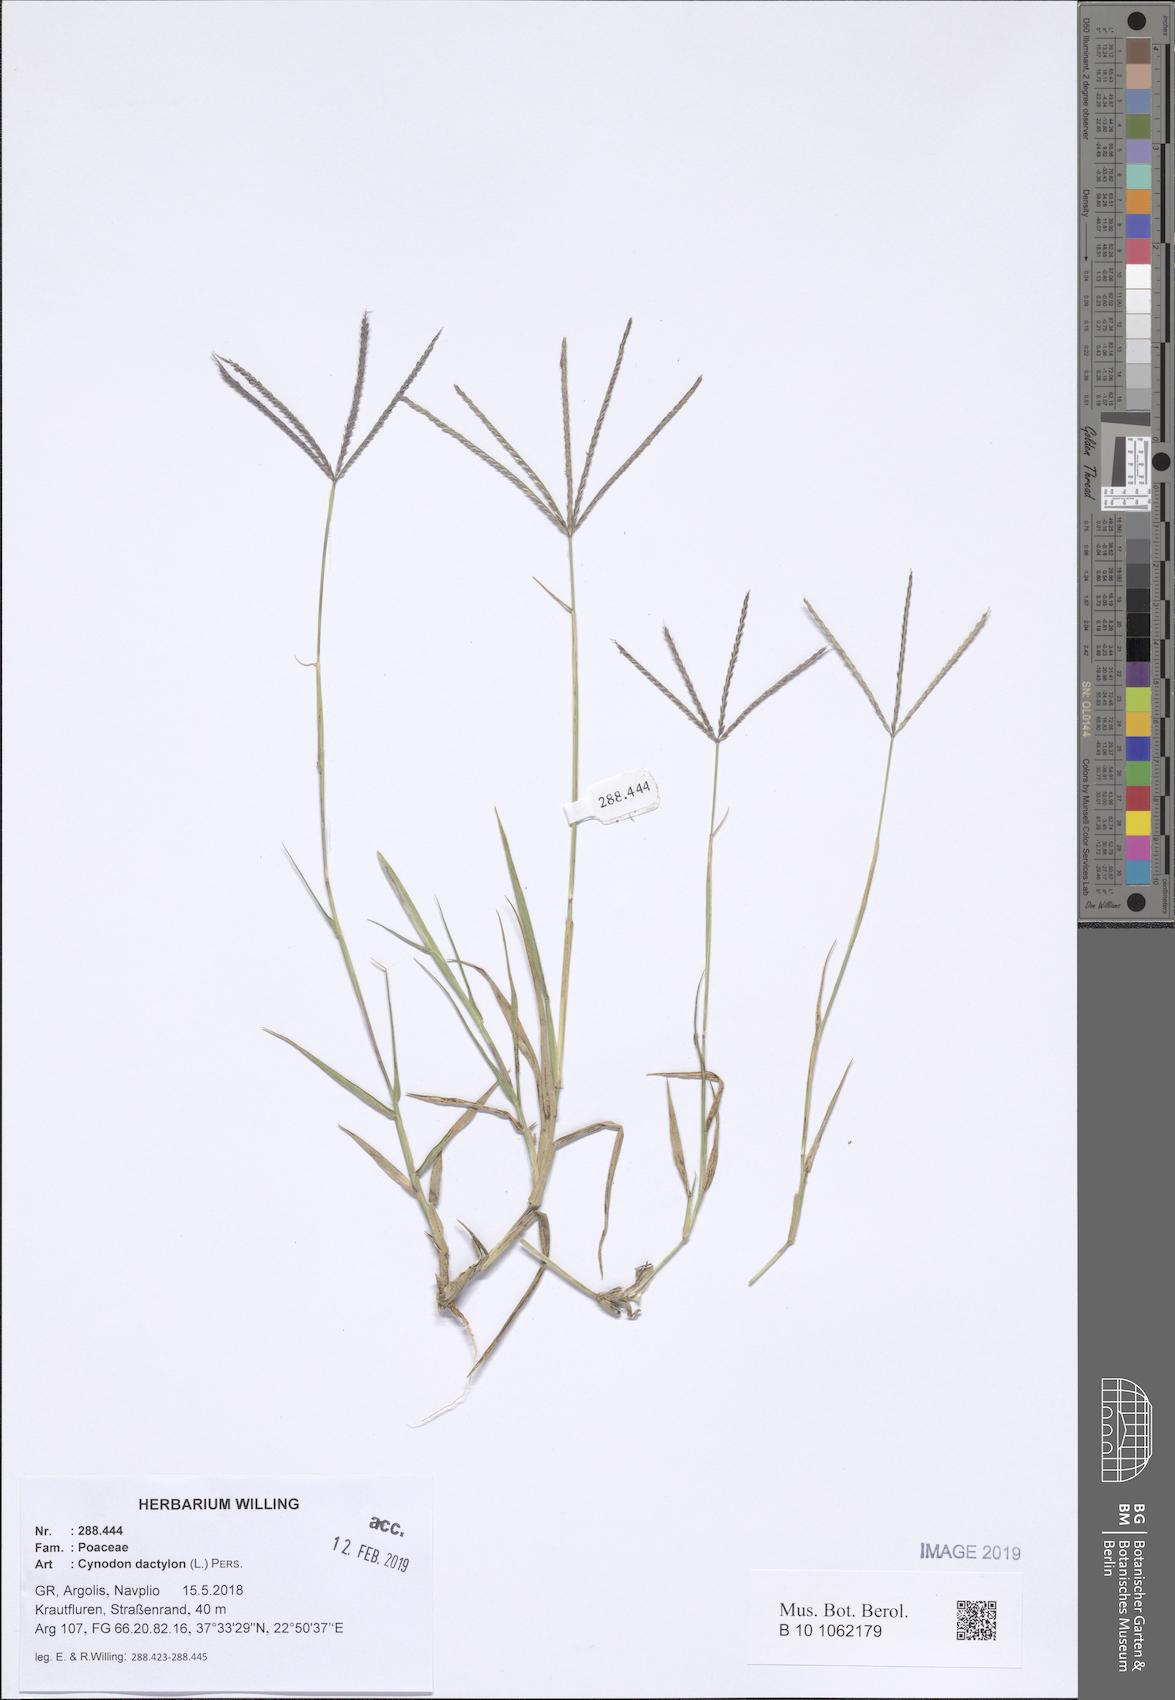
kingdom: Plantae
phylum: Tracheophyta
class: Liliopsida
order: Poales
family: Poaceae
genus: Cynodon
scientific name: Cynodon dactylon
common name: Bermuda grass
